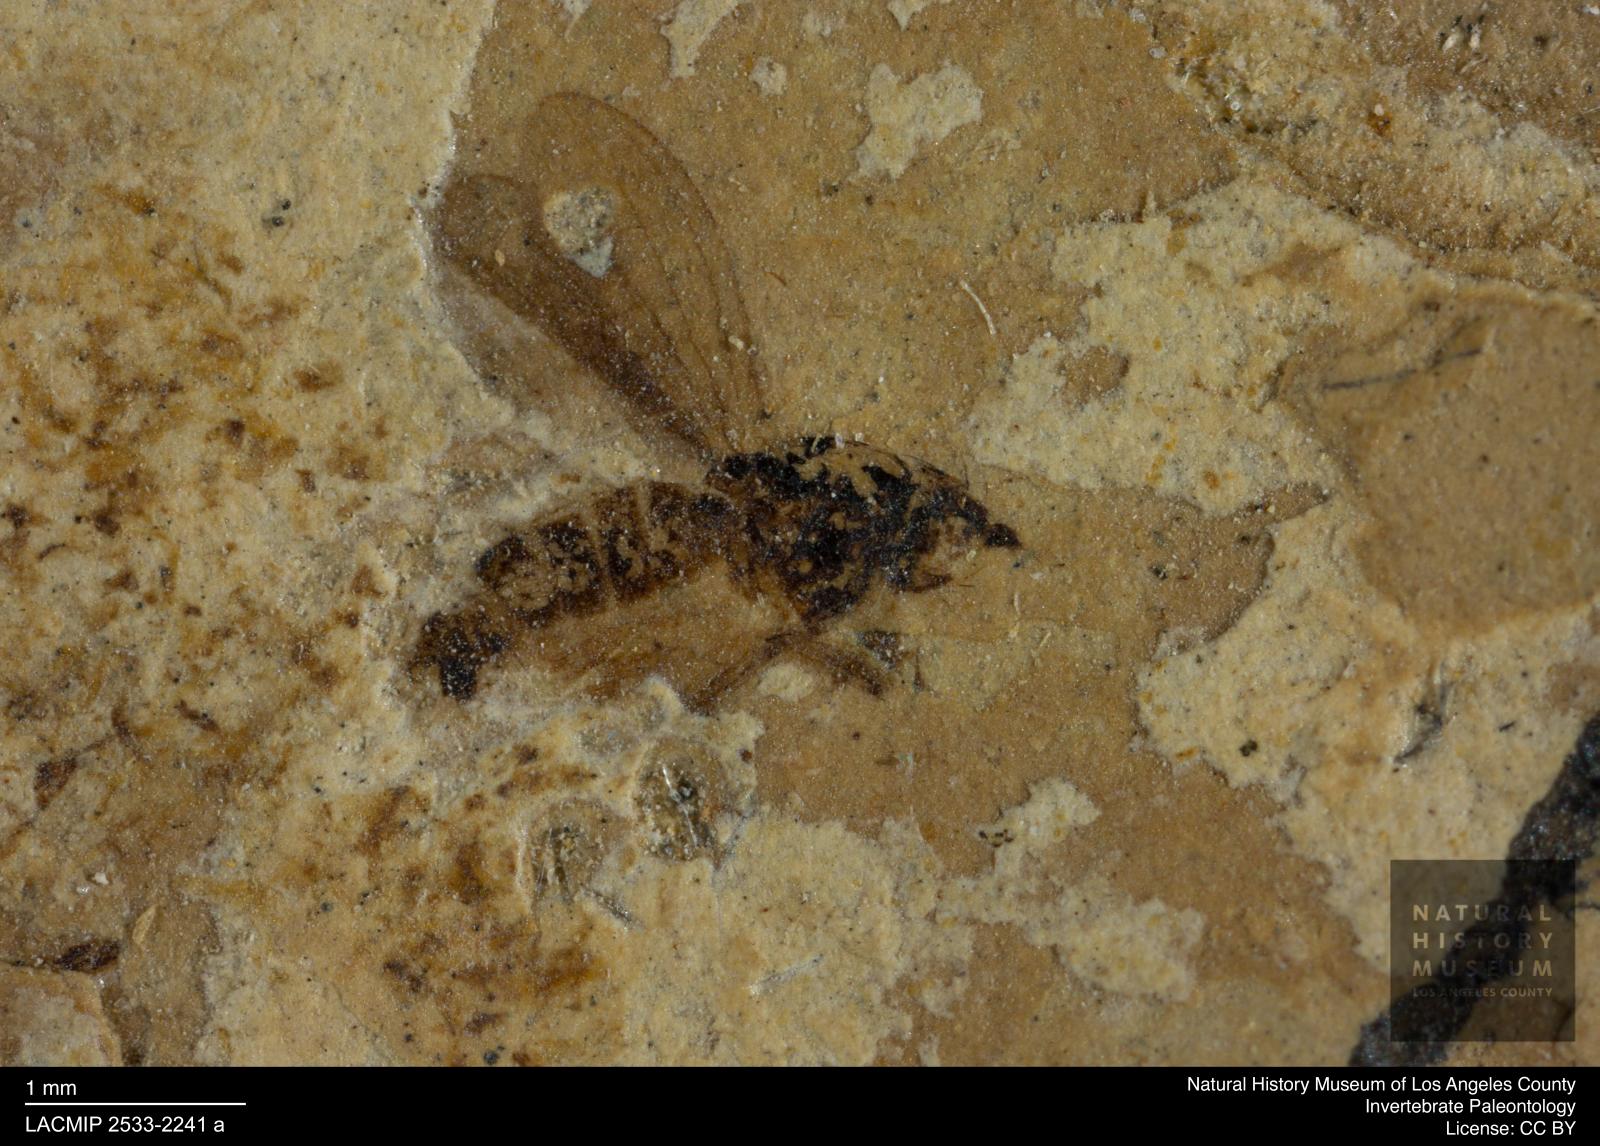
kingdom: Animalia
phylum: Arthropoda
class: Insecta
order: Diptera
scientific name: Diptera
